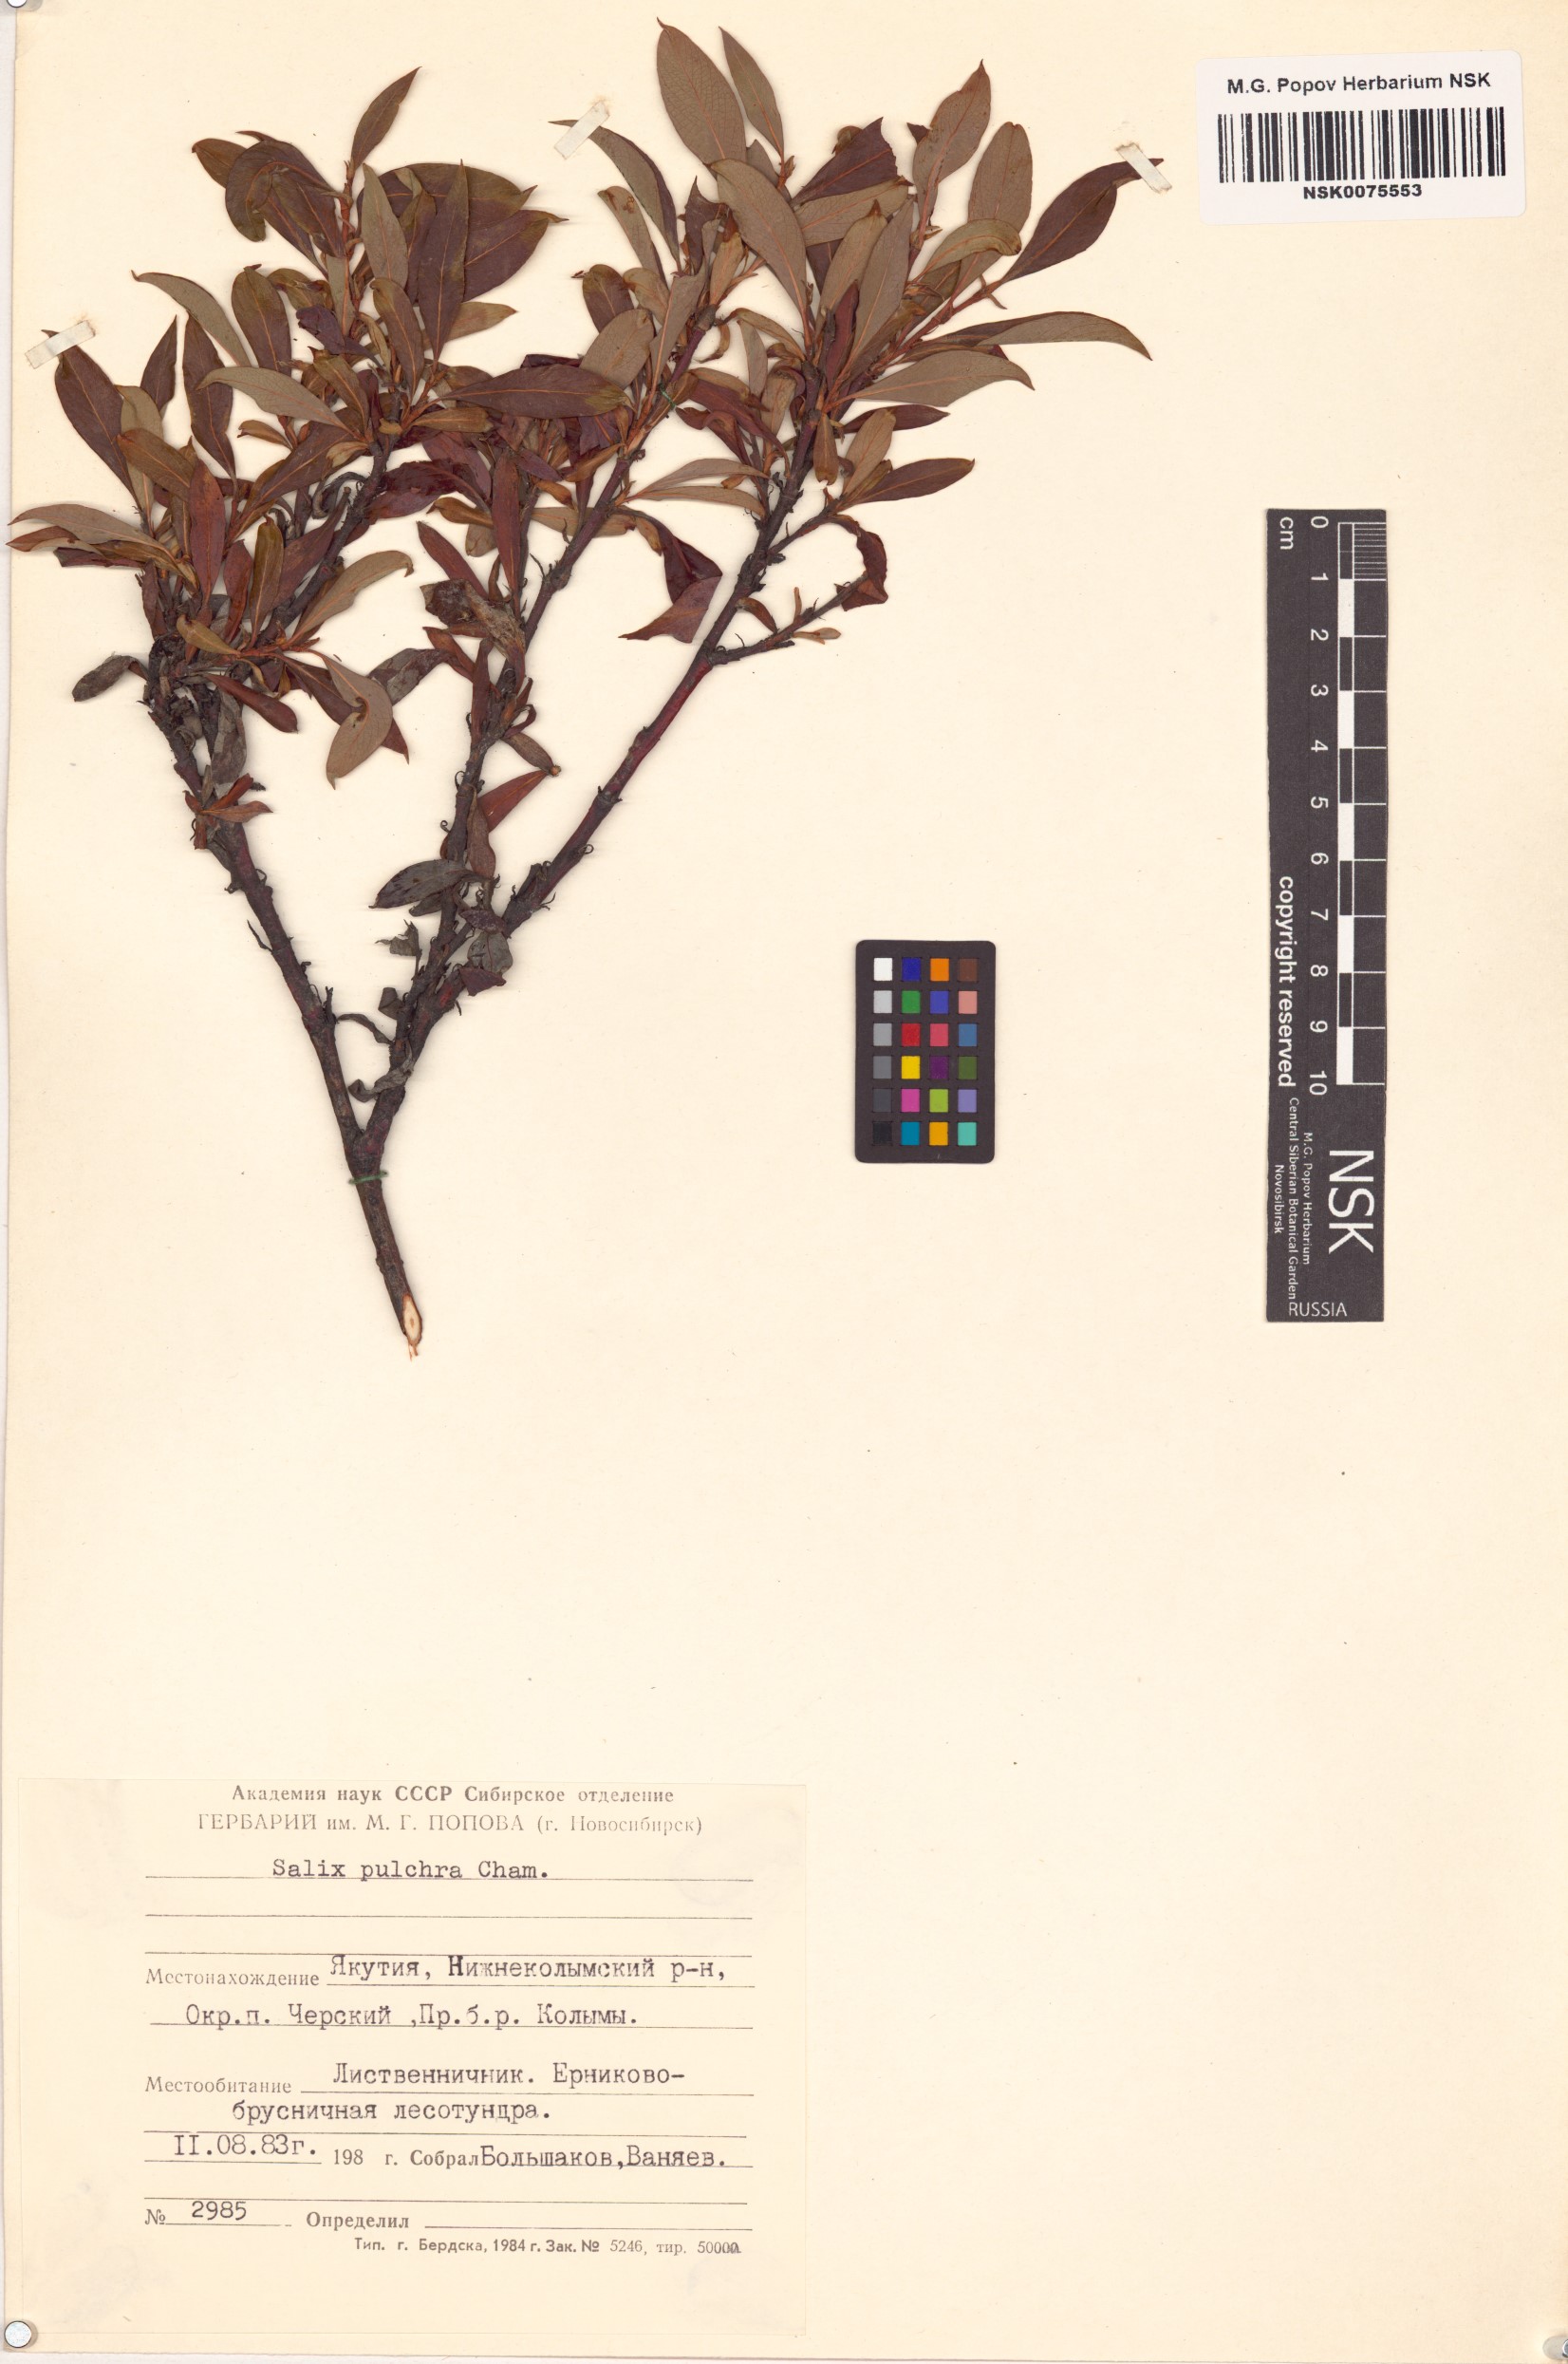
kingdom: Plantae
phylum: Tracheophyta
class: Magnoliopsida
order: Malpighiales
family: Salicaceae
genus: Salix
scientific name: Salix pulchra
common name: Diamond-leaved willow
